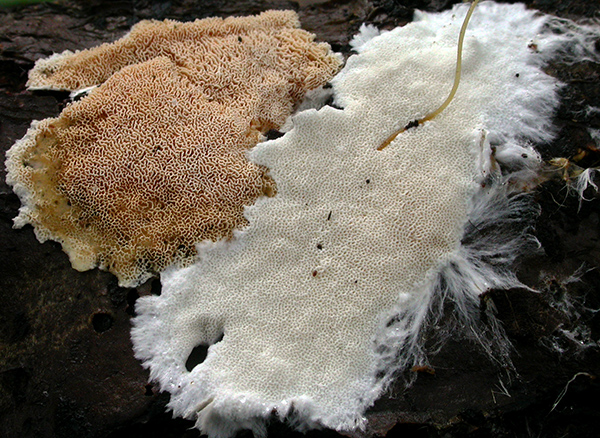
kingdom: Fungi
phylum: Basidiomycota
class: Agaricomycetes
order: Polyporales
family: Steccherinaceae
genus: Steccherinum
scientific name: Steccherinum lacerum
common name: trådet skønporesvamp
